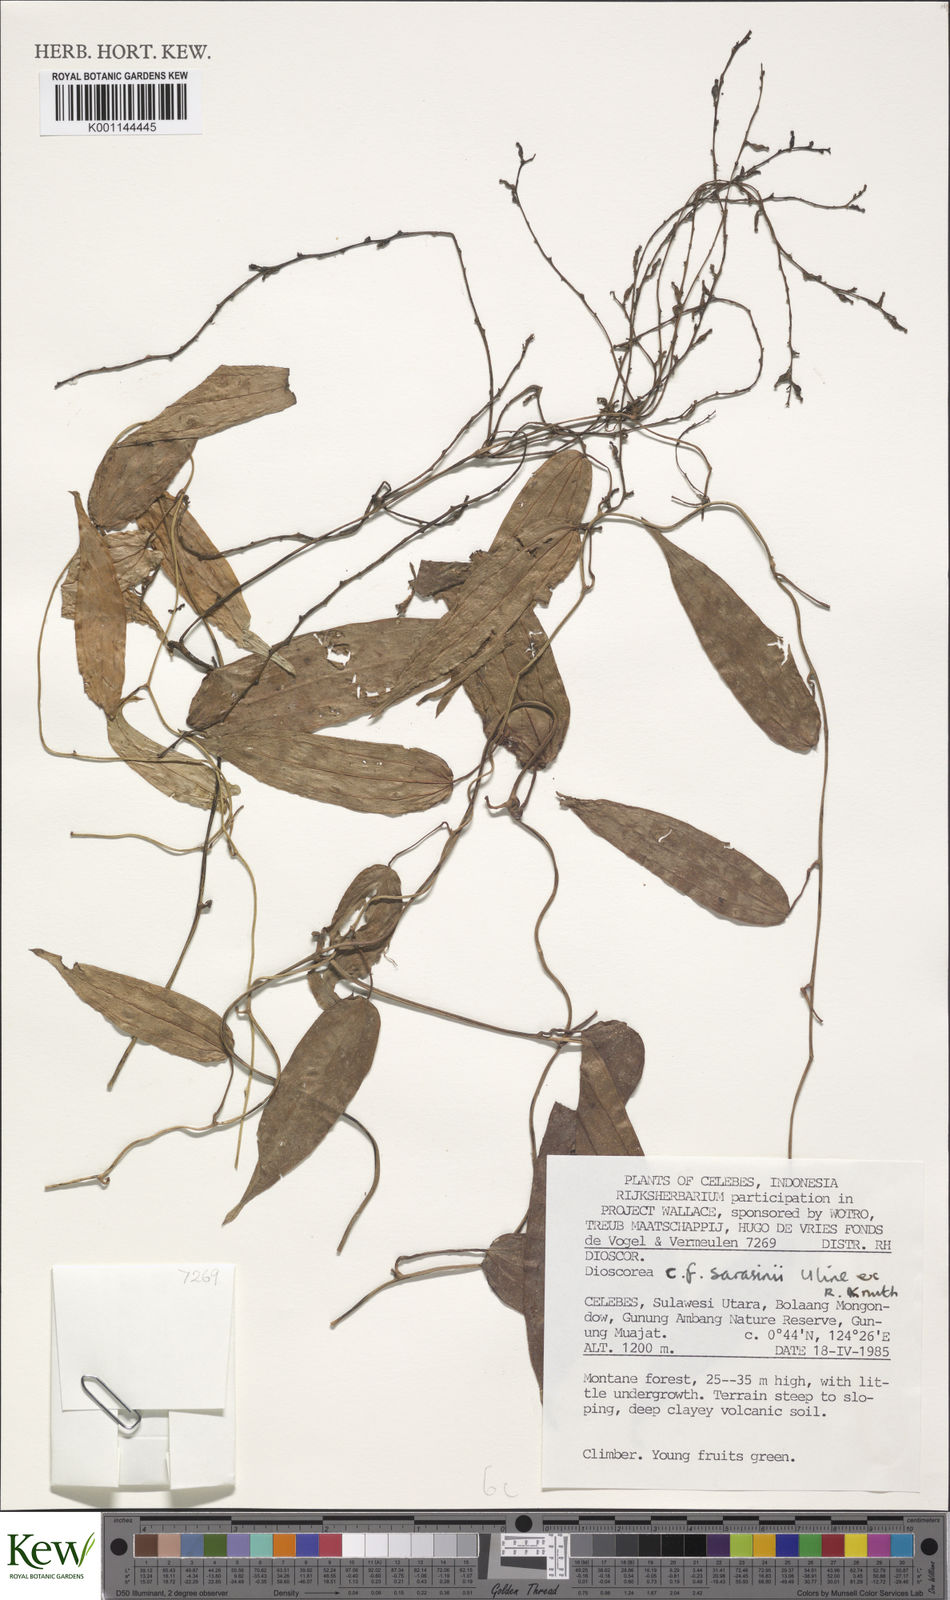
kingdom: Plantae
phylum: Tracheophyta
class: Liliopsida
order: Dioscoreales
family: Dioscoreaceae
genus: Dioscorea
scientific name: Dioscorea sarasinii
